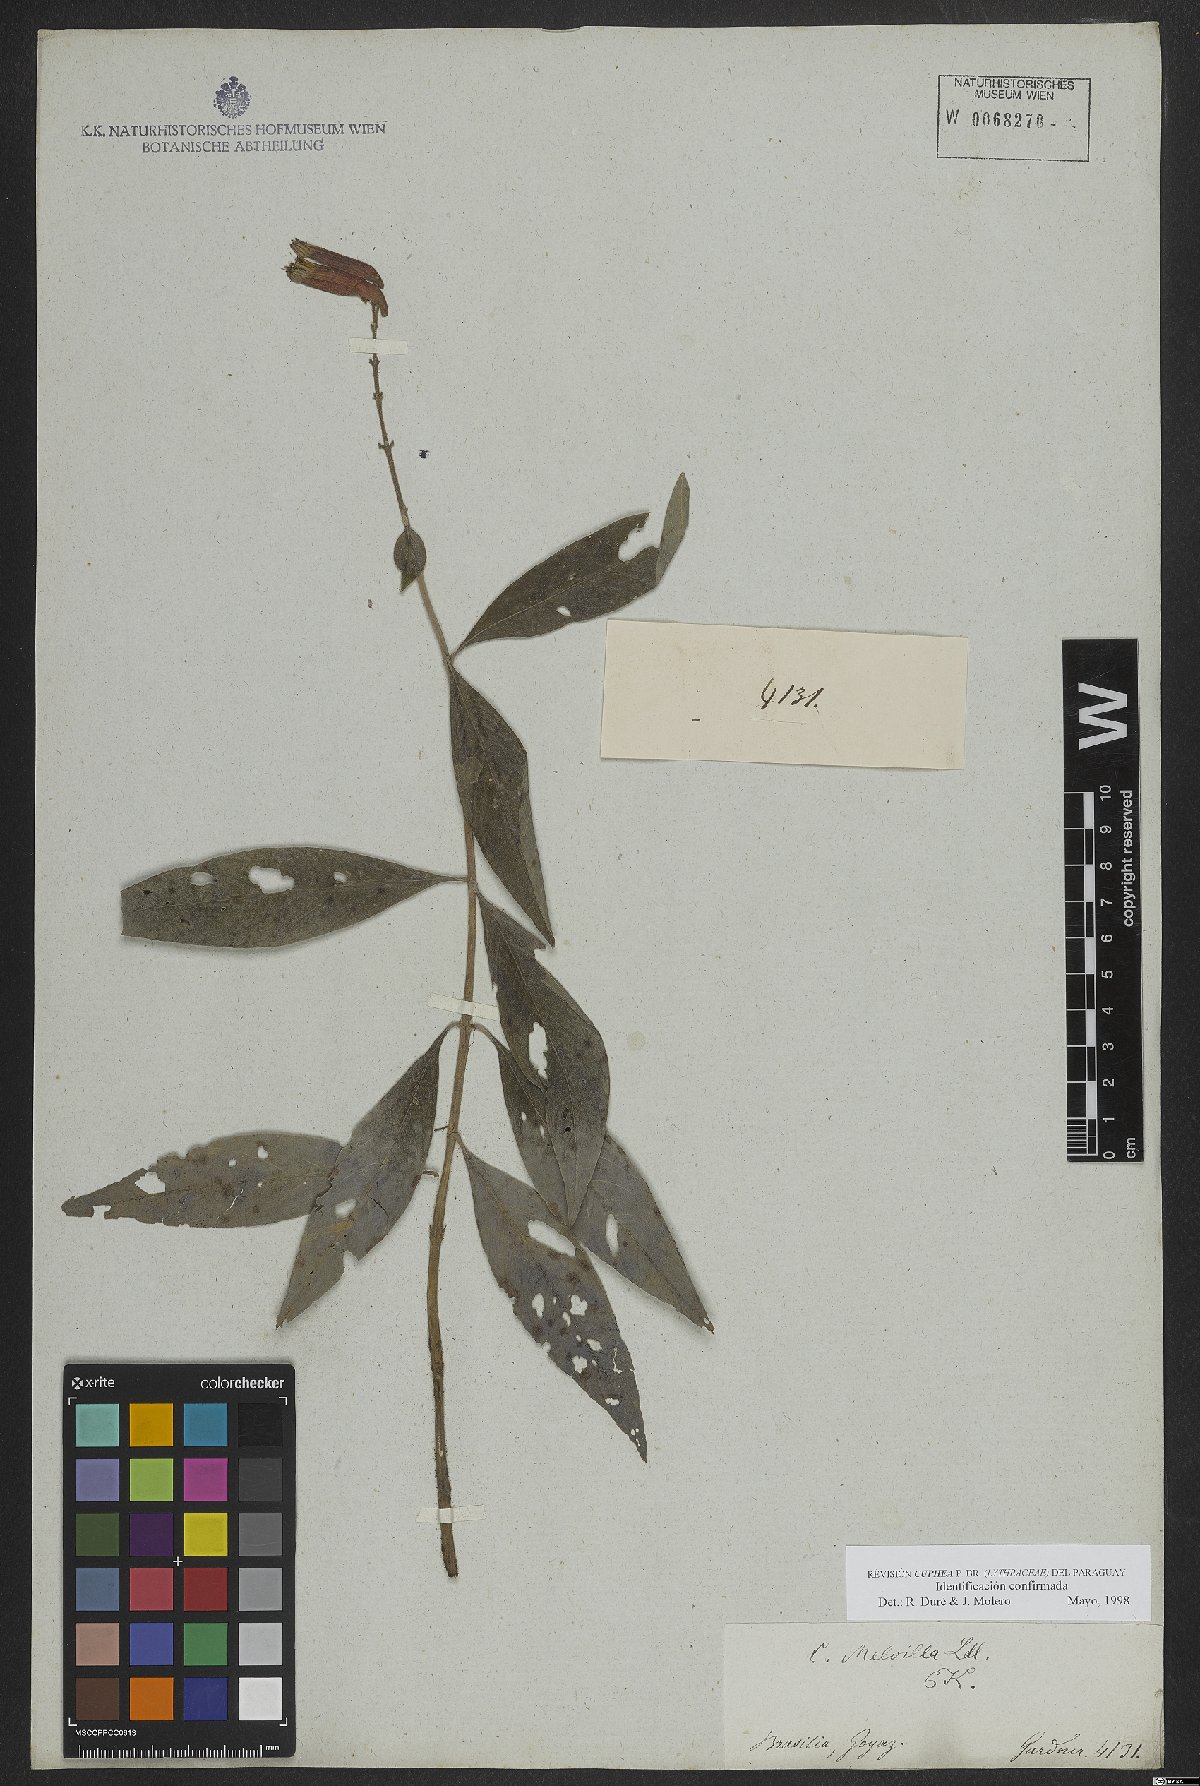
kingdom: Plantae
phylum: Tracheophyta
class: Magnoliopsida
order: Myrtales
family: Lythraceae
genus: Cuphea
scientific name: Cuphea melvilla
